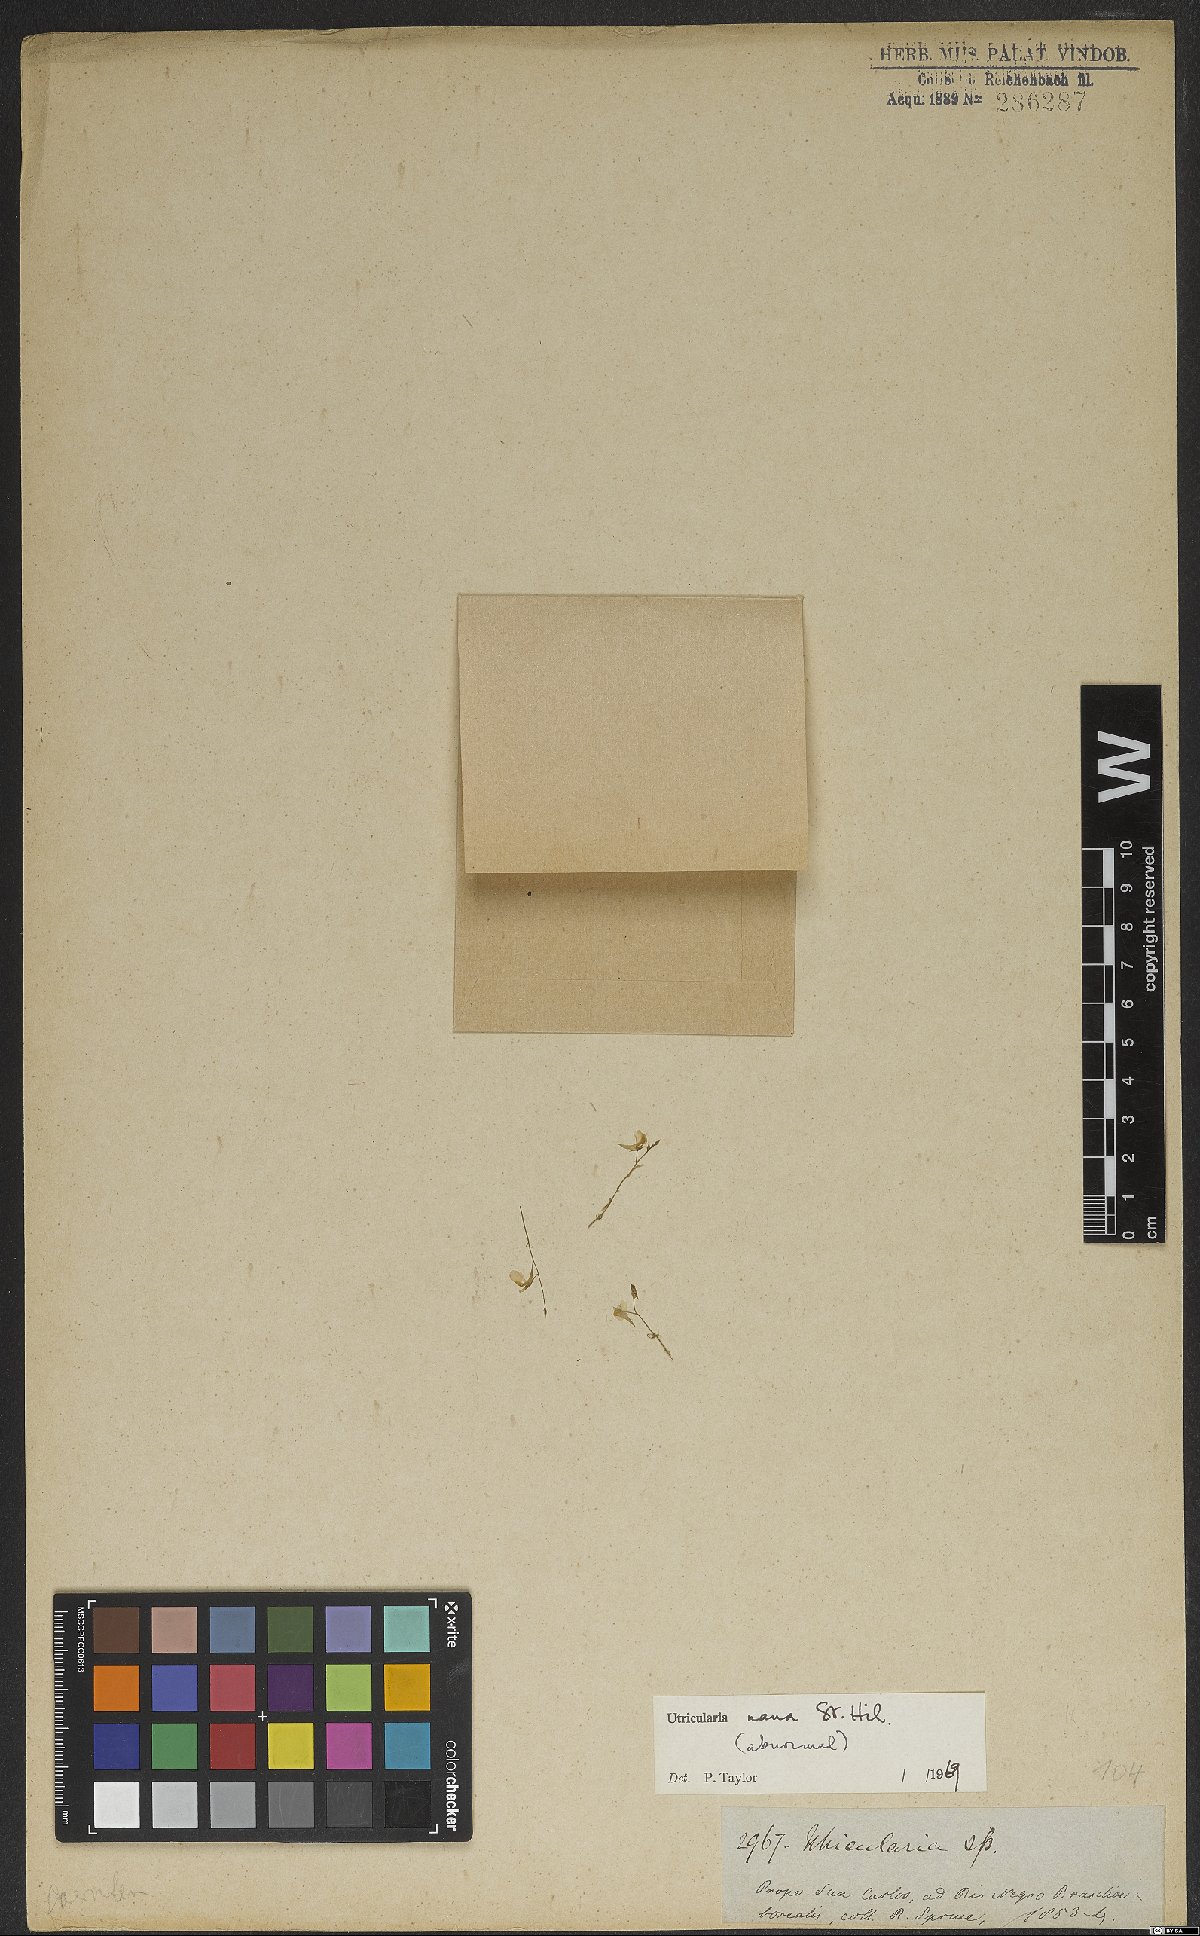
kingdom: Plantae
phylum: Tracheophyta
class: Magnoliopsida
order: Lamiales
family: Lentibulariaceae
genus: Utricularia
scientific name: Utricularia nana
